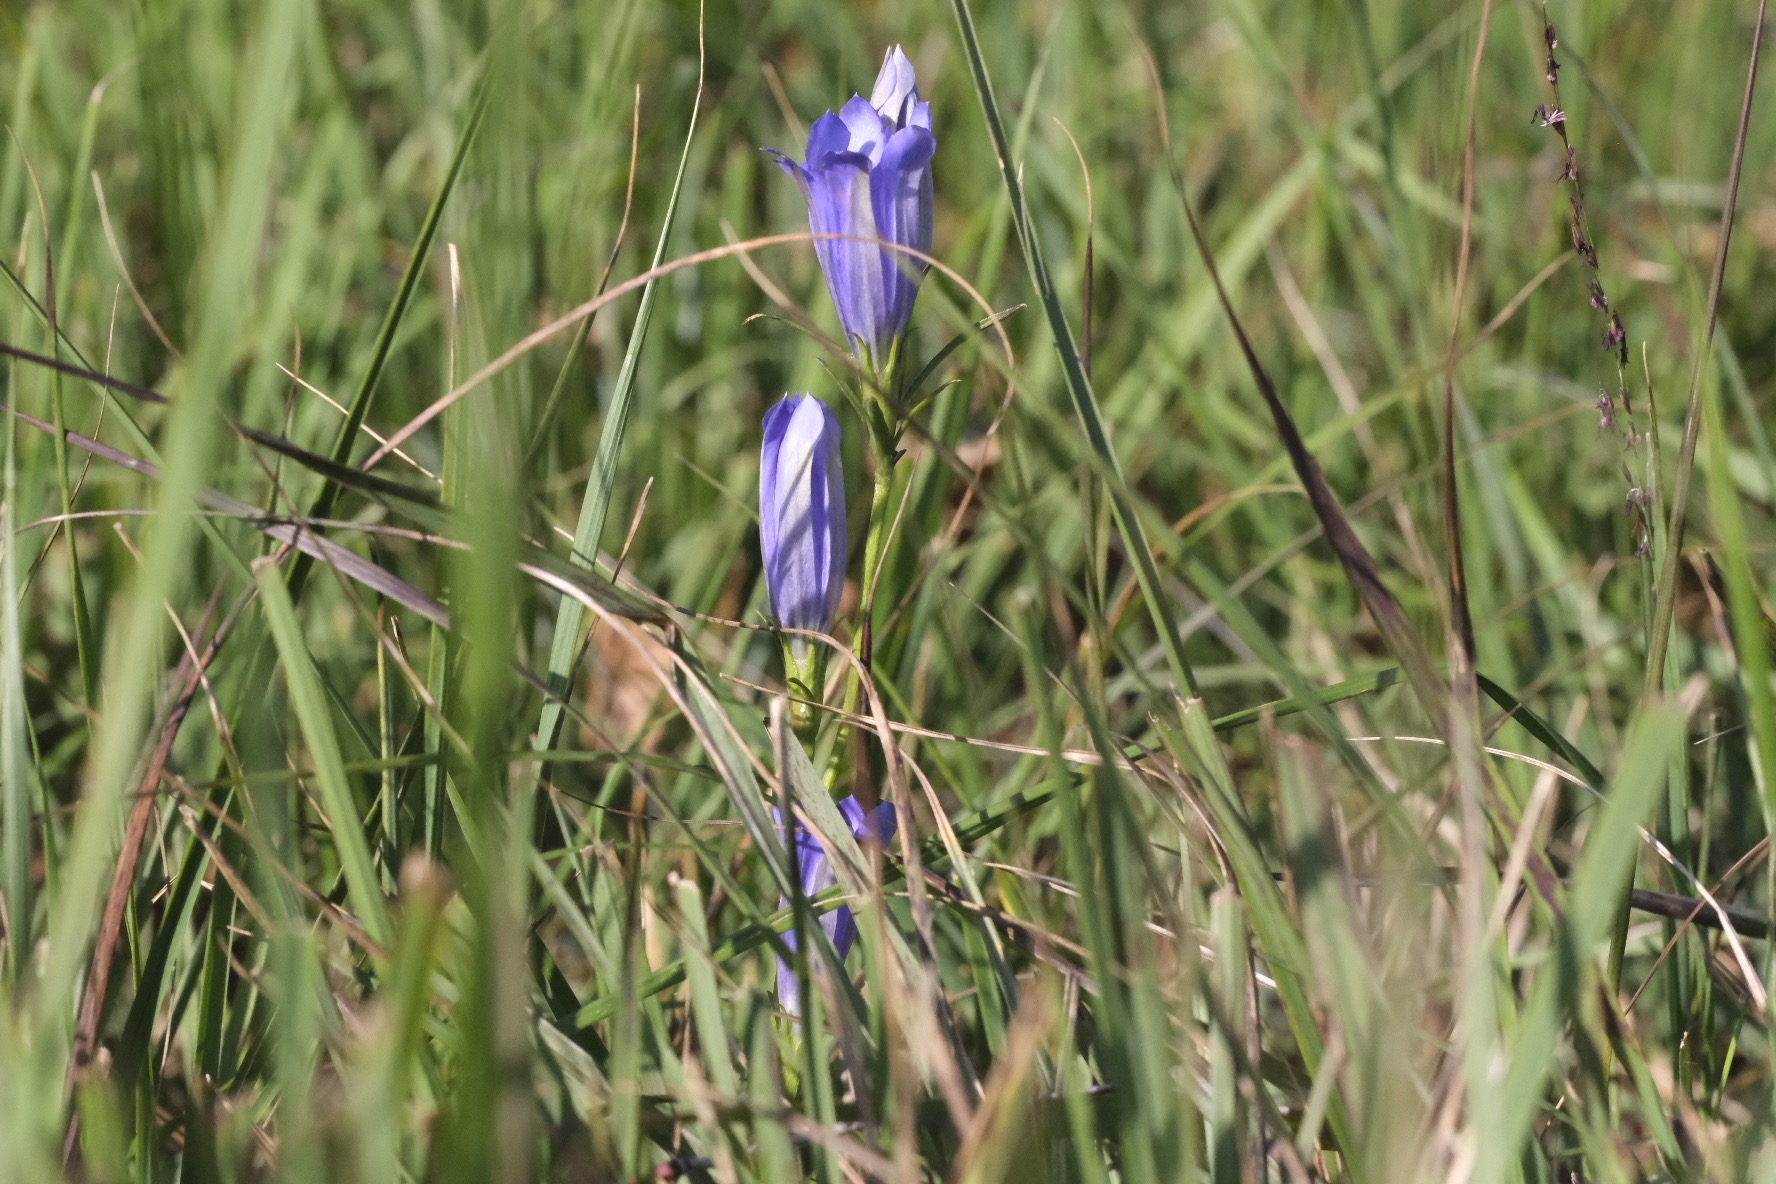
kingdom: Plantae
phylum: Tracheophyta
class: Magnoliopsida
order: Gentianales
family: Gentianaceae
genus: Gentiana
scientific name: Gentiana pneumonanthe
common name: Klokke-ensian
